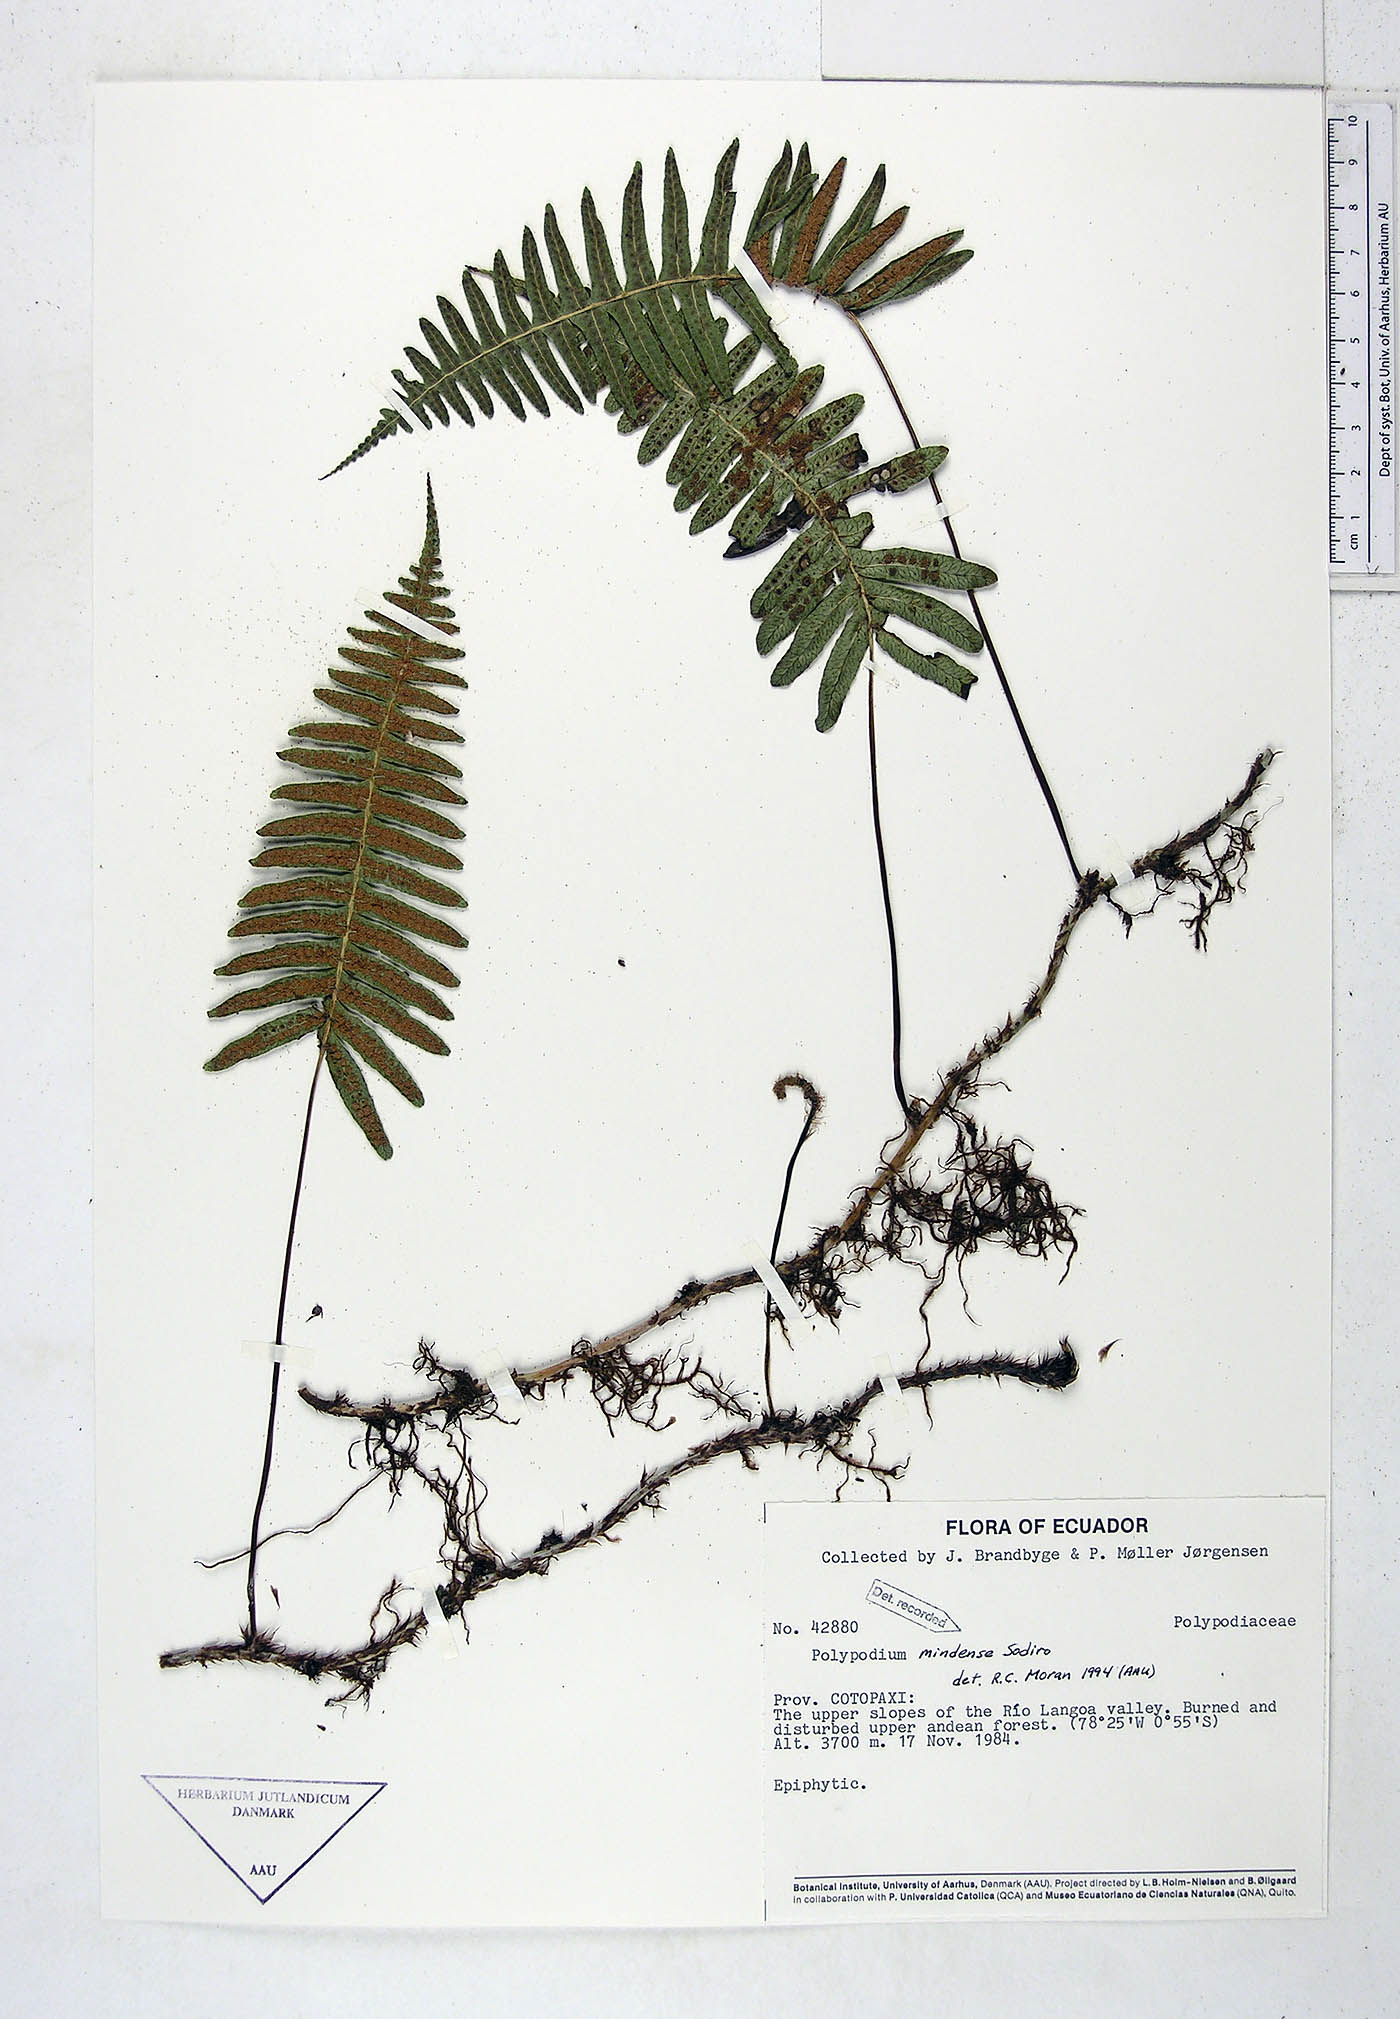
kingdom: Plantae
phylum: Tracheophyta
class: Polypodiopsida
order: Polypodiales
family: Polypodiaceae
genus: Serpocaulon
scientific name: Serpocaulon eleutherophlebium
